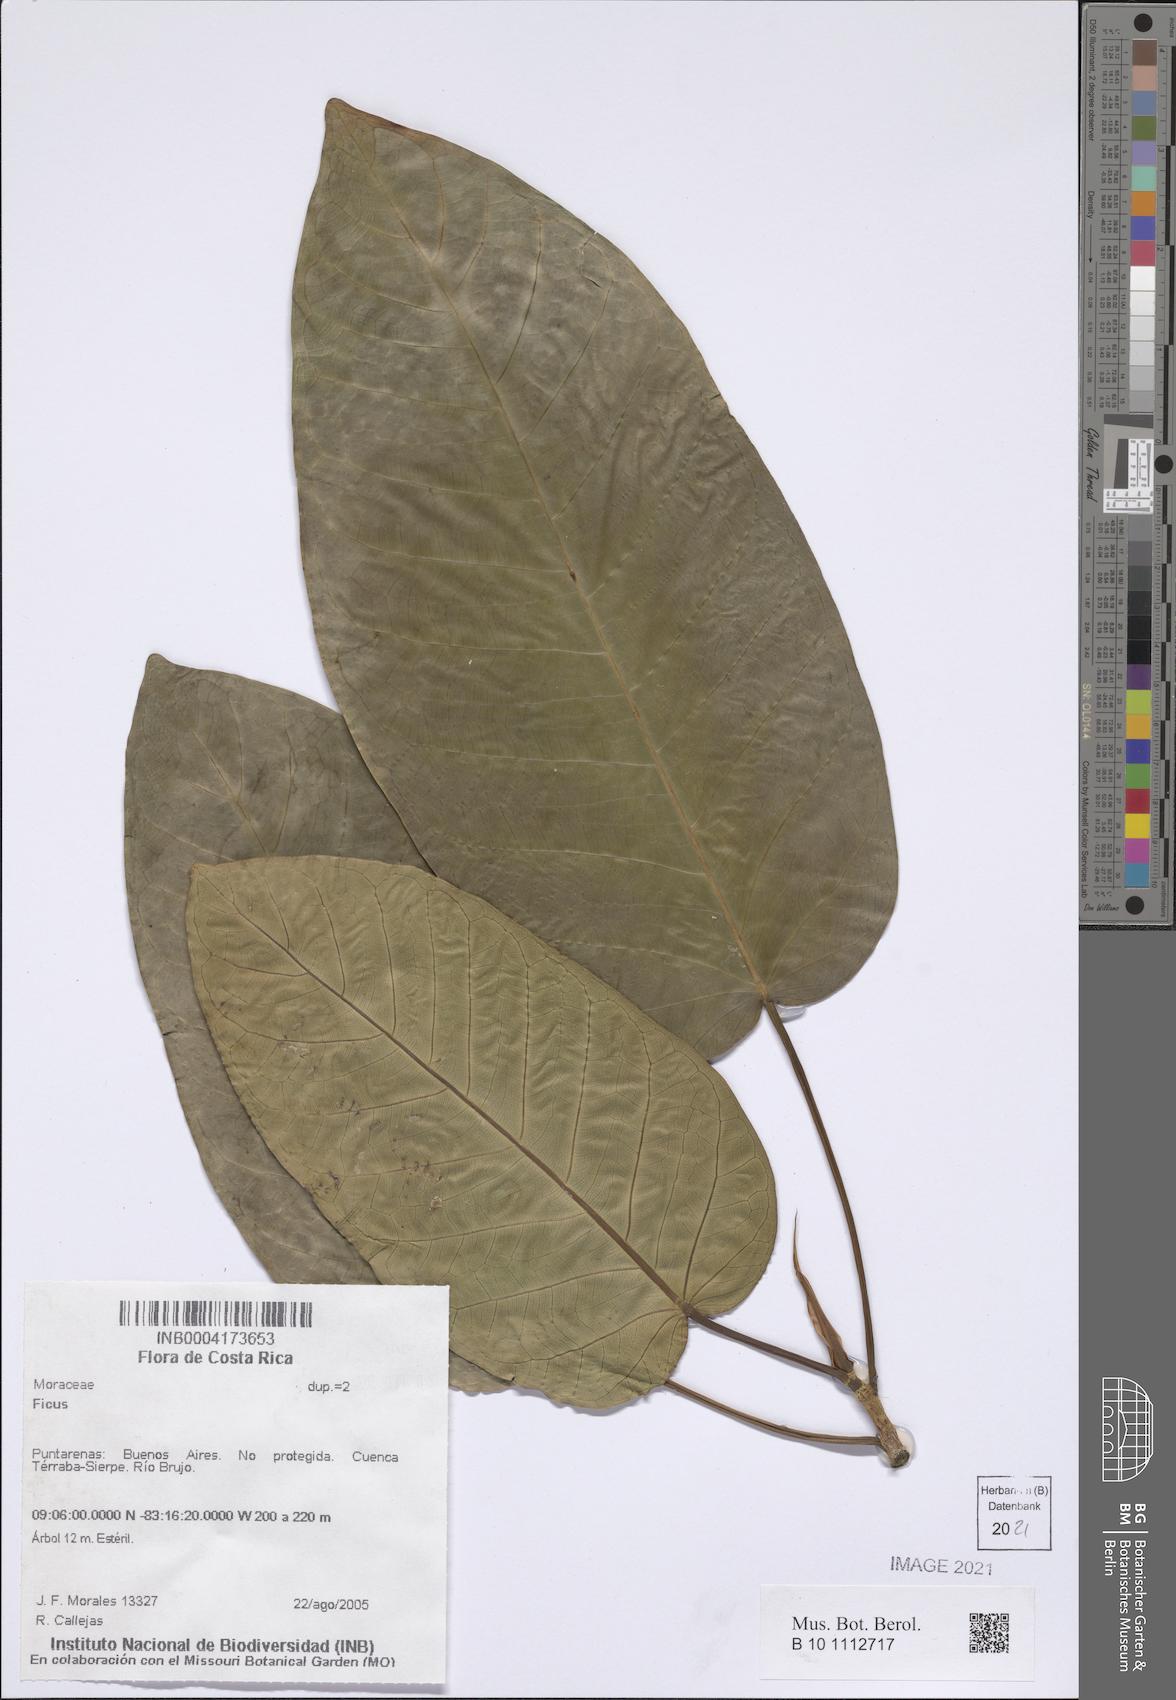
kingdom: Plantae
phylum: Tracheophyta
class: Magnoliopsida
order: Rosales
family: Moraceae
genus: Ficus
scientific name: Ficus
